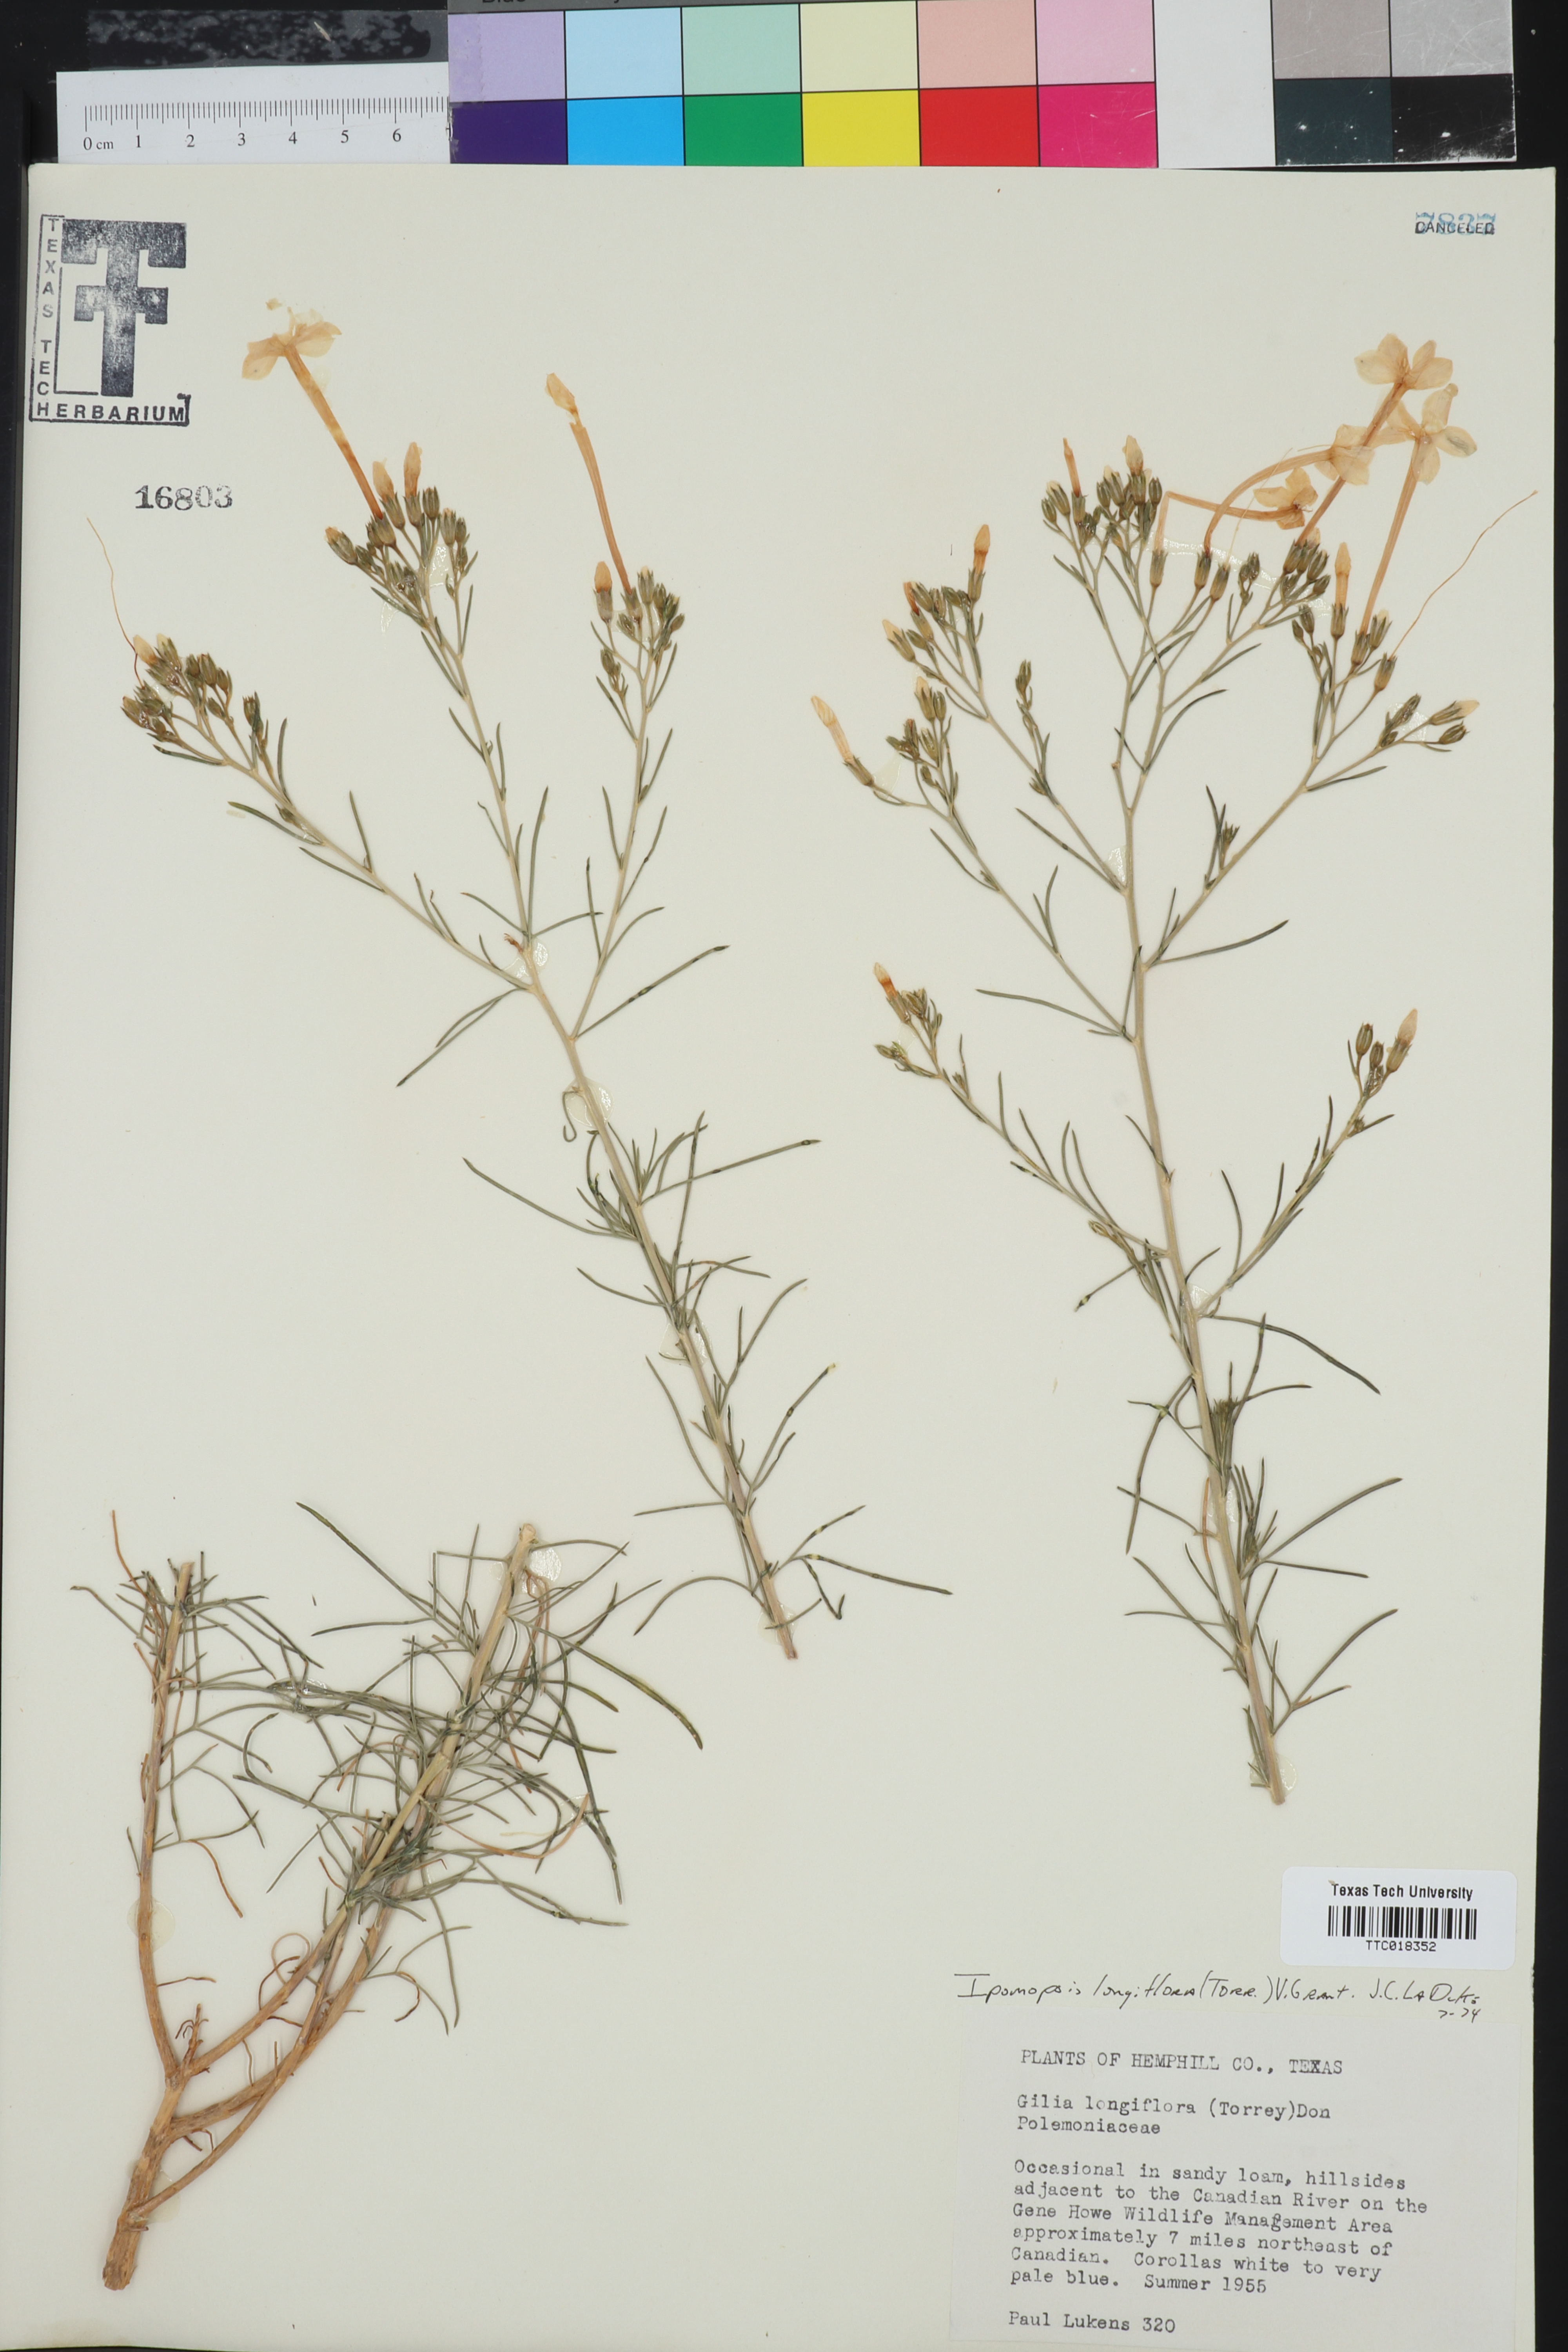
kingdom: Plantae
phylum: Tracheophyta
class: Magnoliopsida
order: Ericales
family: Polemoniaceae
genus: Ipomopsis
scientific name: Ipomopsis longiflora
